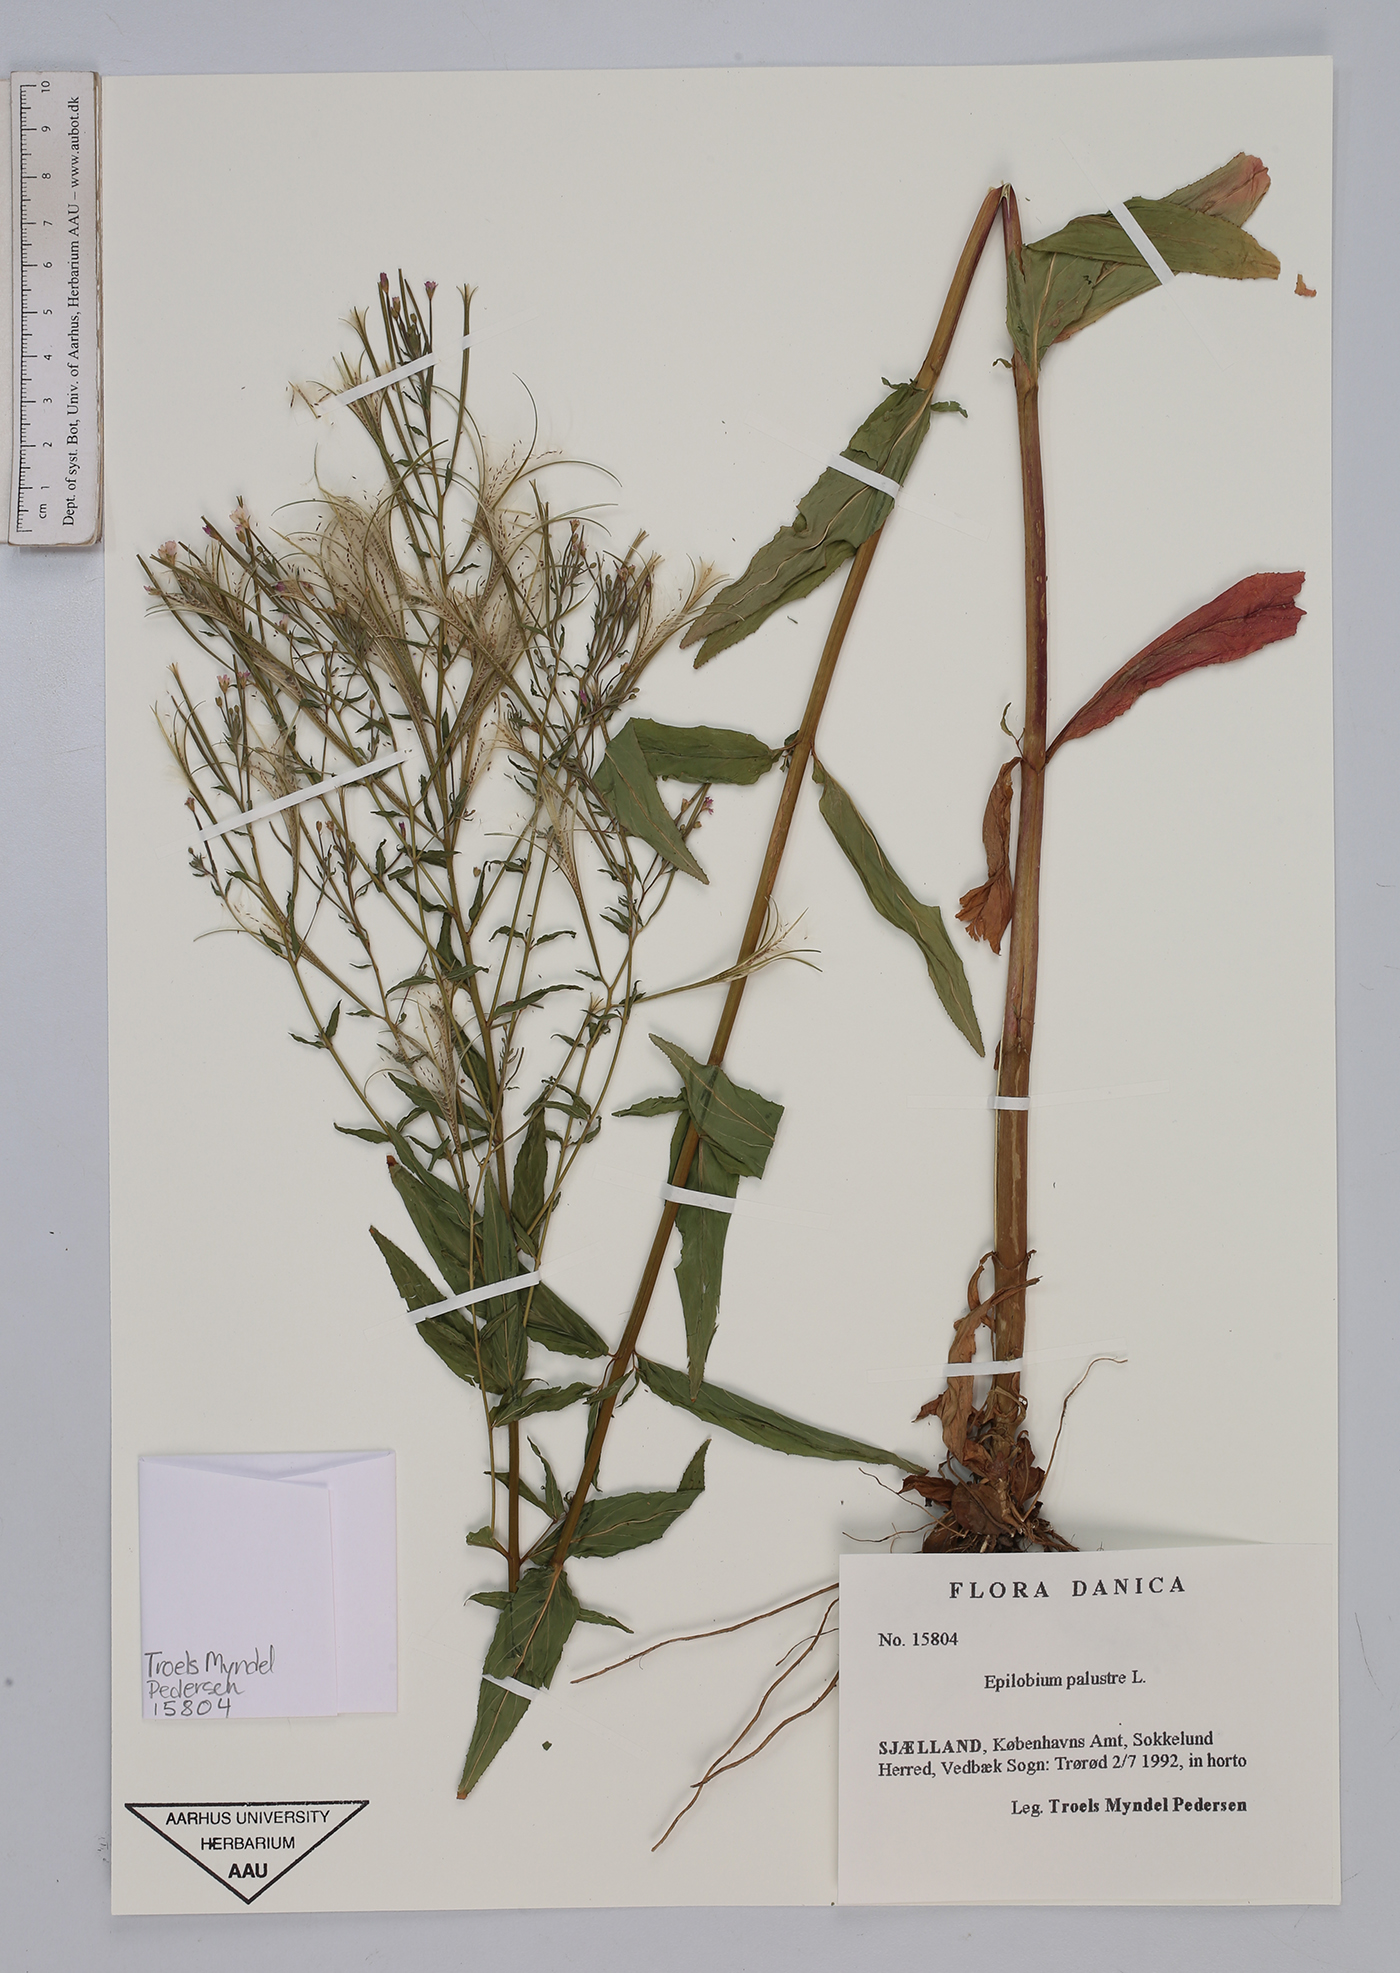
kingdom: Plantae
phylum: Tracheophyta
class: Magnoliopsida
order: Myrtales
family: Onagraceae
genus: Epilobium
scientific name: Epilobium palustre
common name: Marsh willowherb
